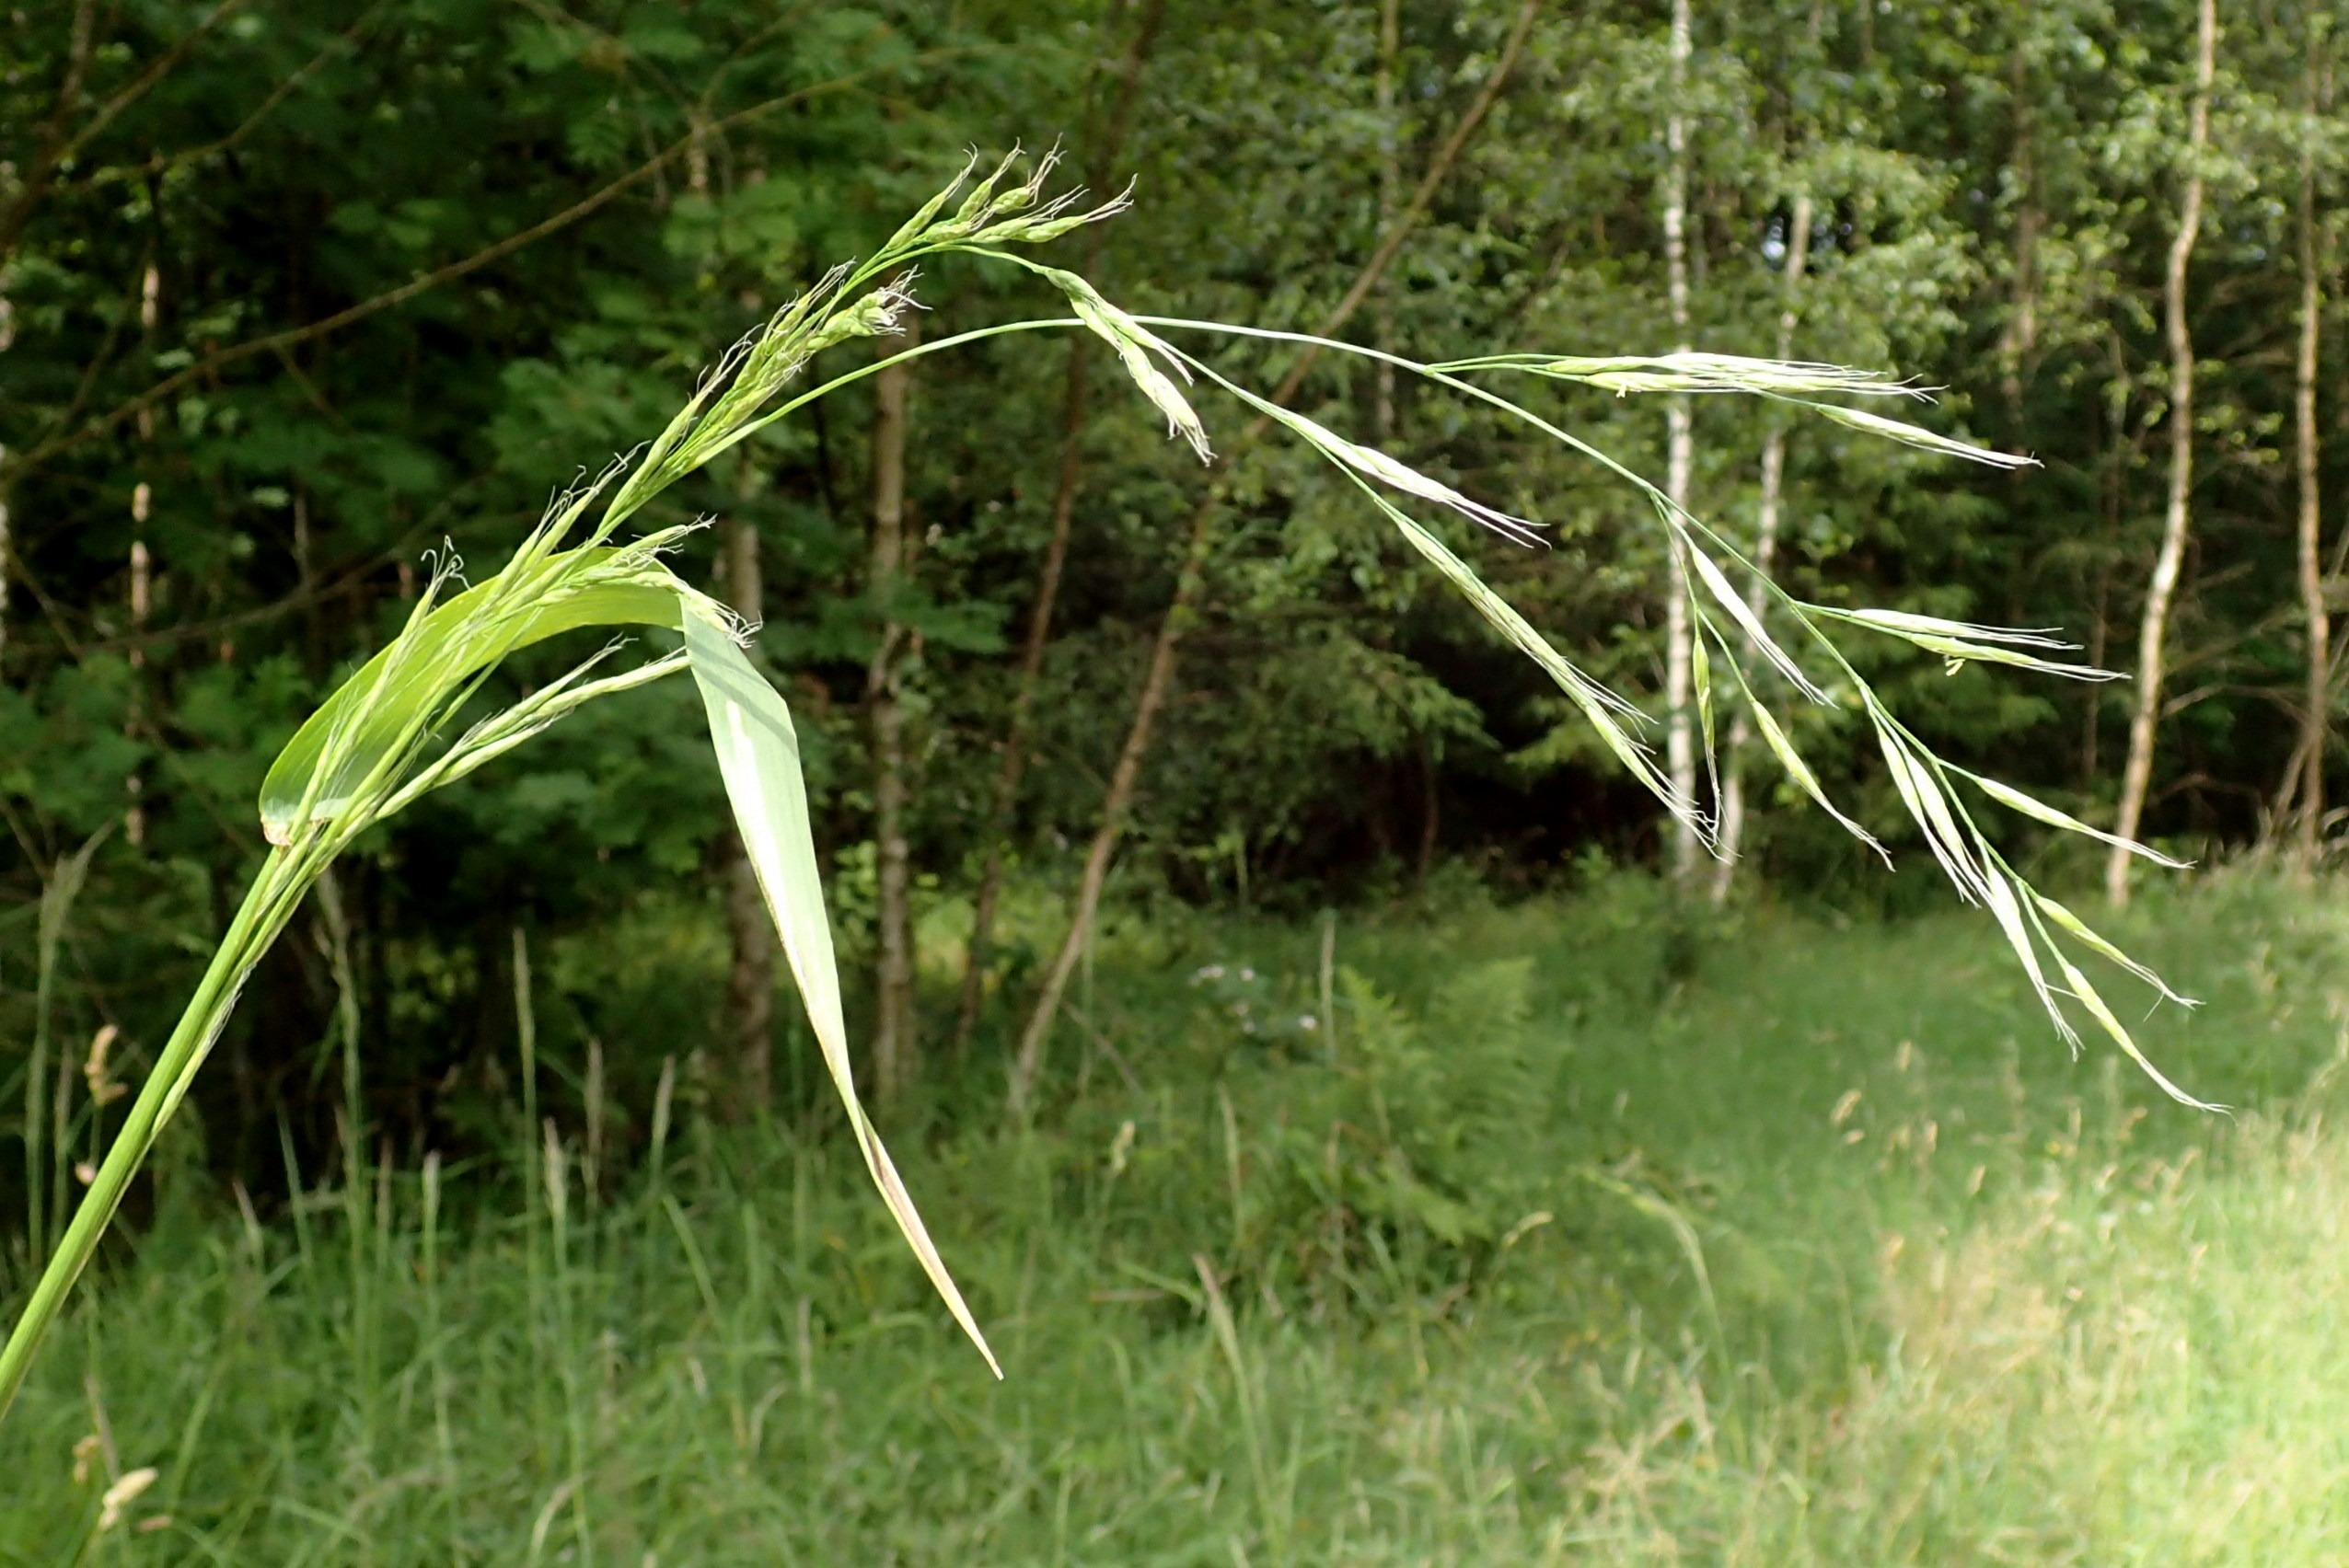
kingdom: Plantae
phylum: Tracheophyta
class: Liliopsida
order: Poales
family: Poaceae
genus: Lolium
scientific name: Lolium giganteum
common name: Kæmpe-svingel
